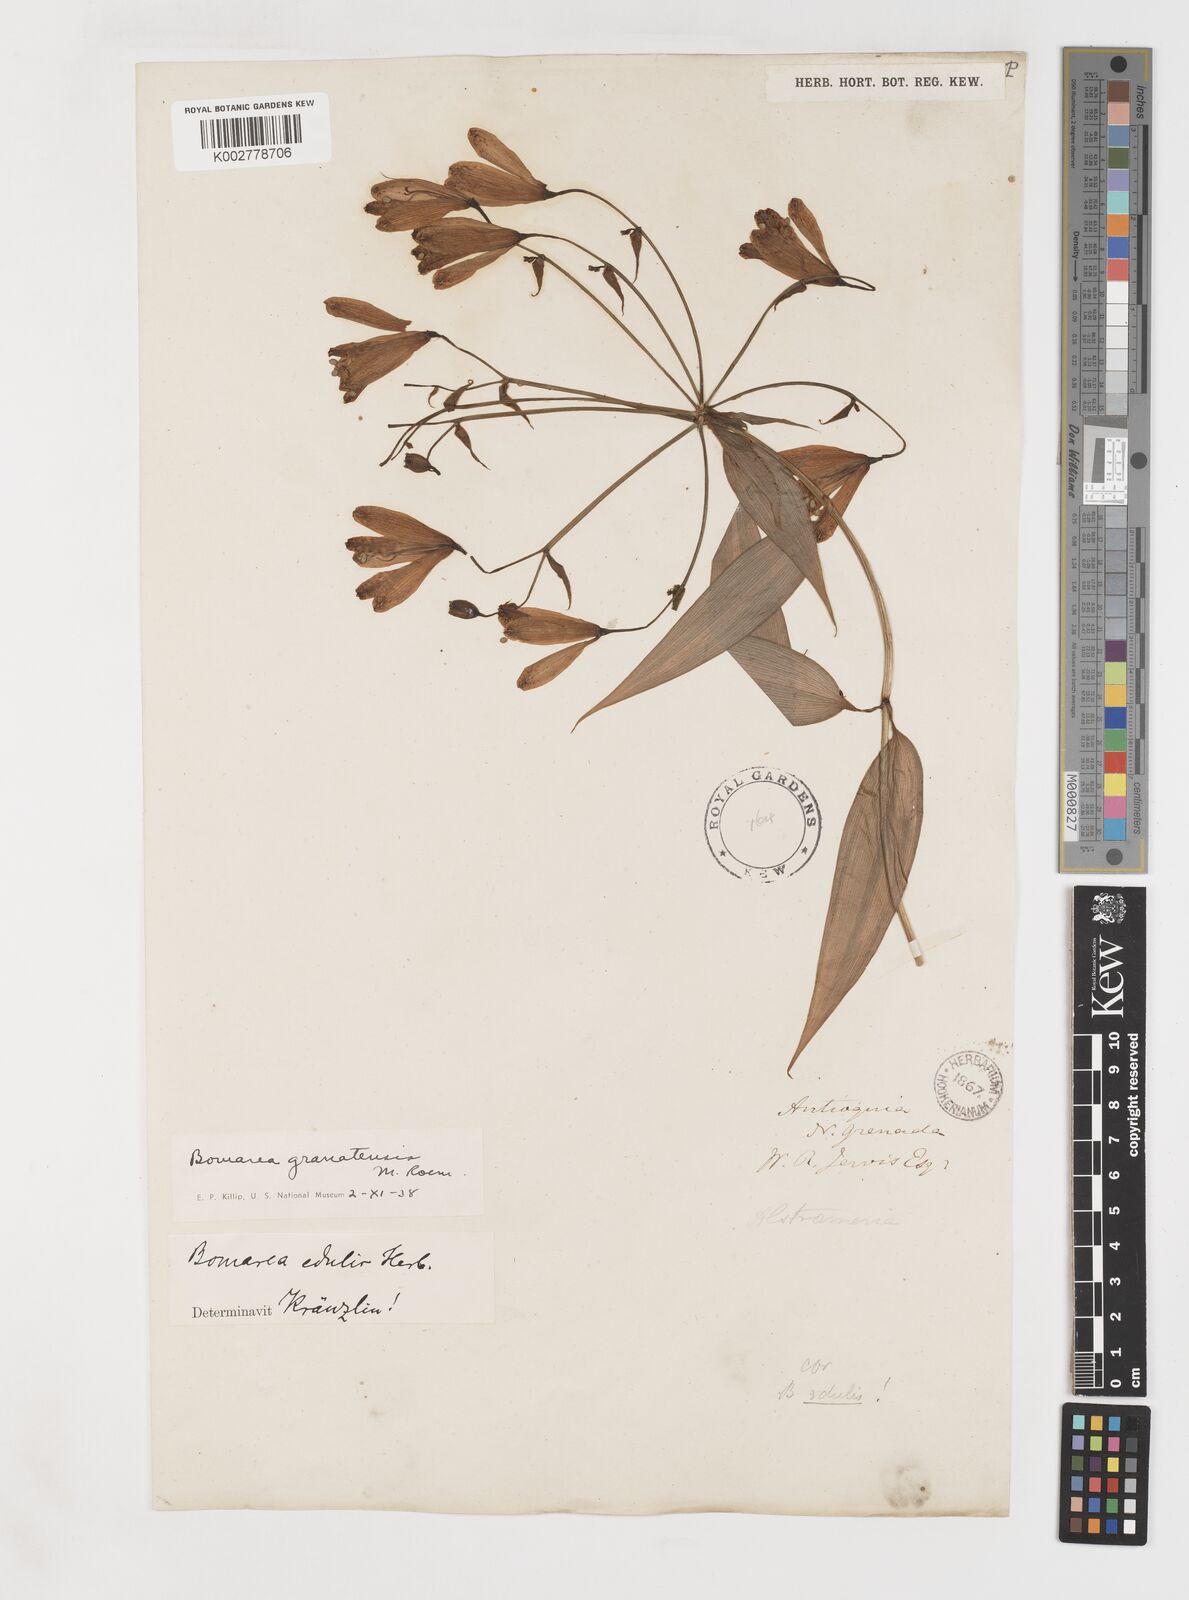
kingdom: Plantae
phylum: Tracheophyta
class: Liliopsida
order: Liliales
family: Alstroemeriaceae
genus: Bomarea
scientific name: Bomarea edulis
